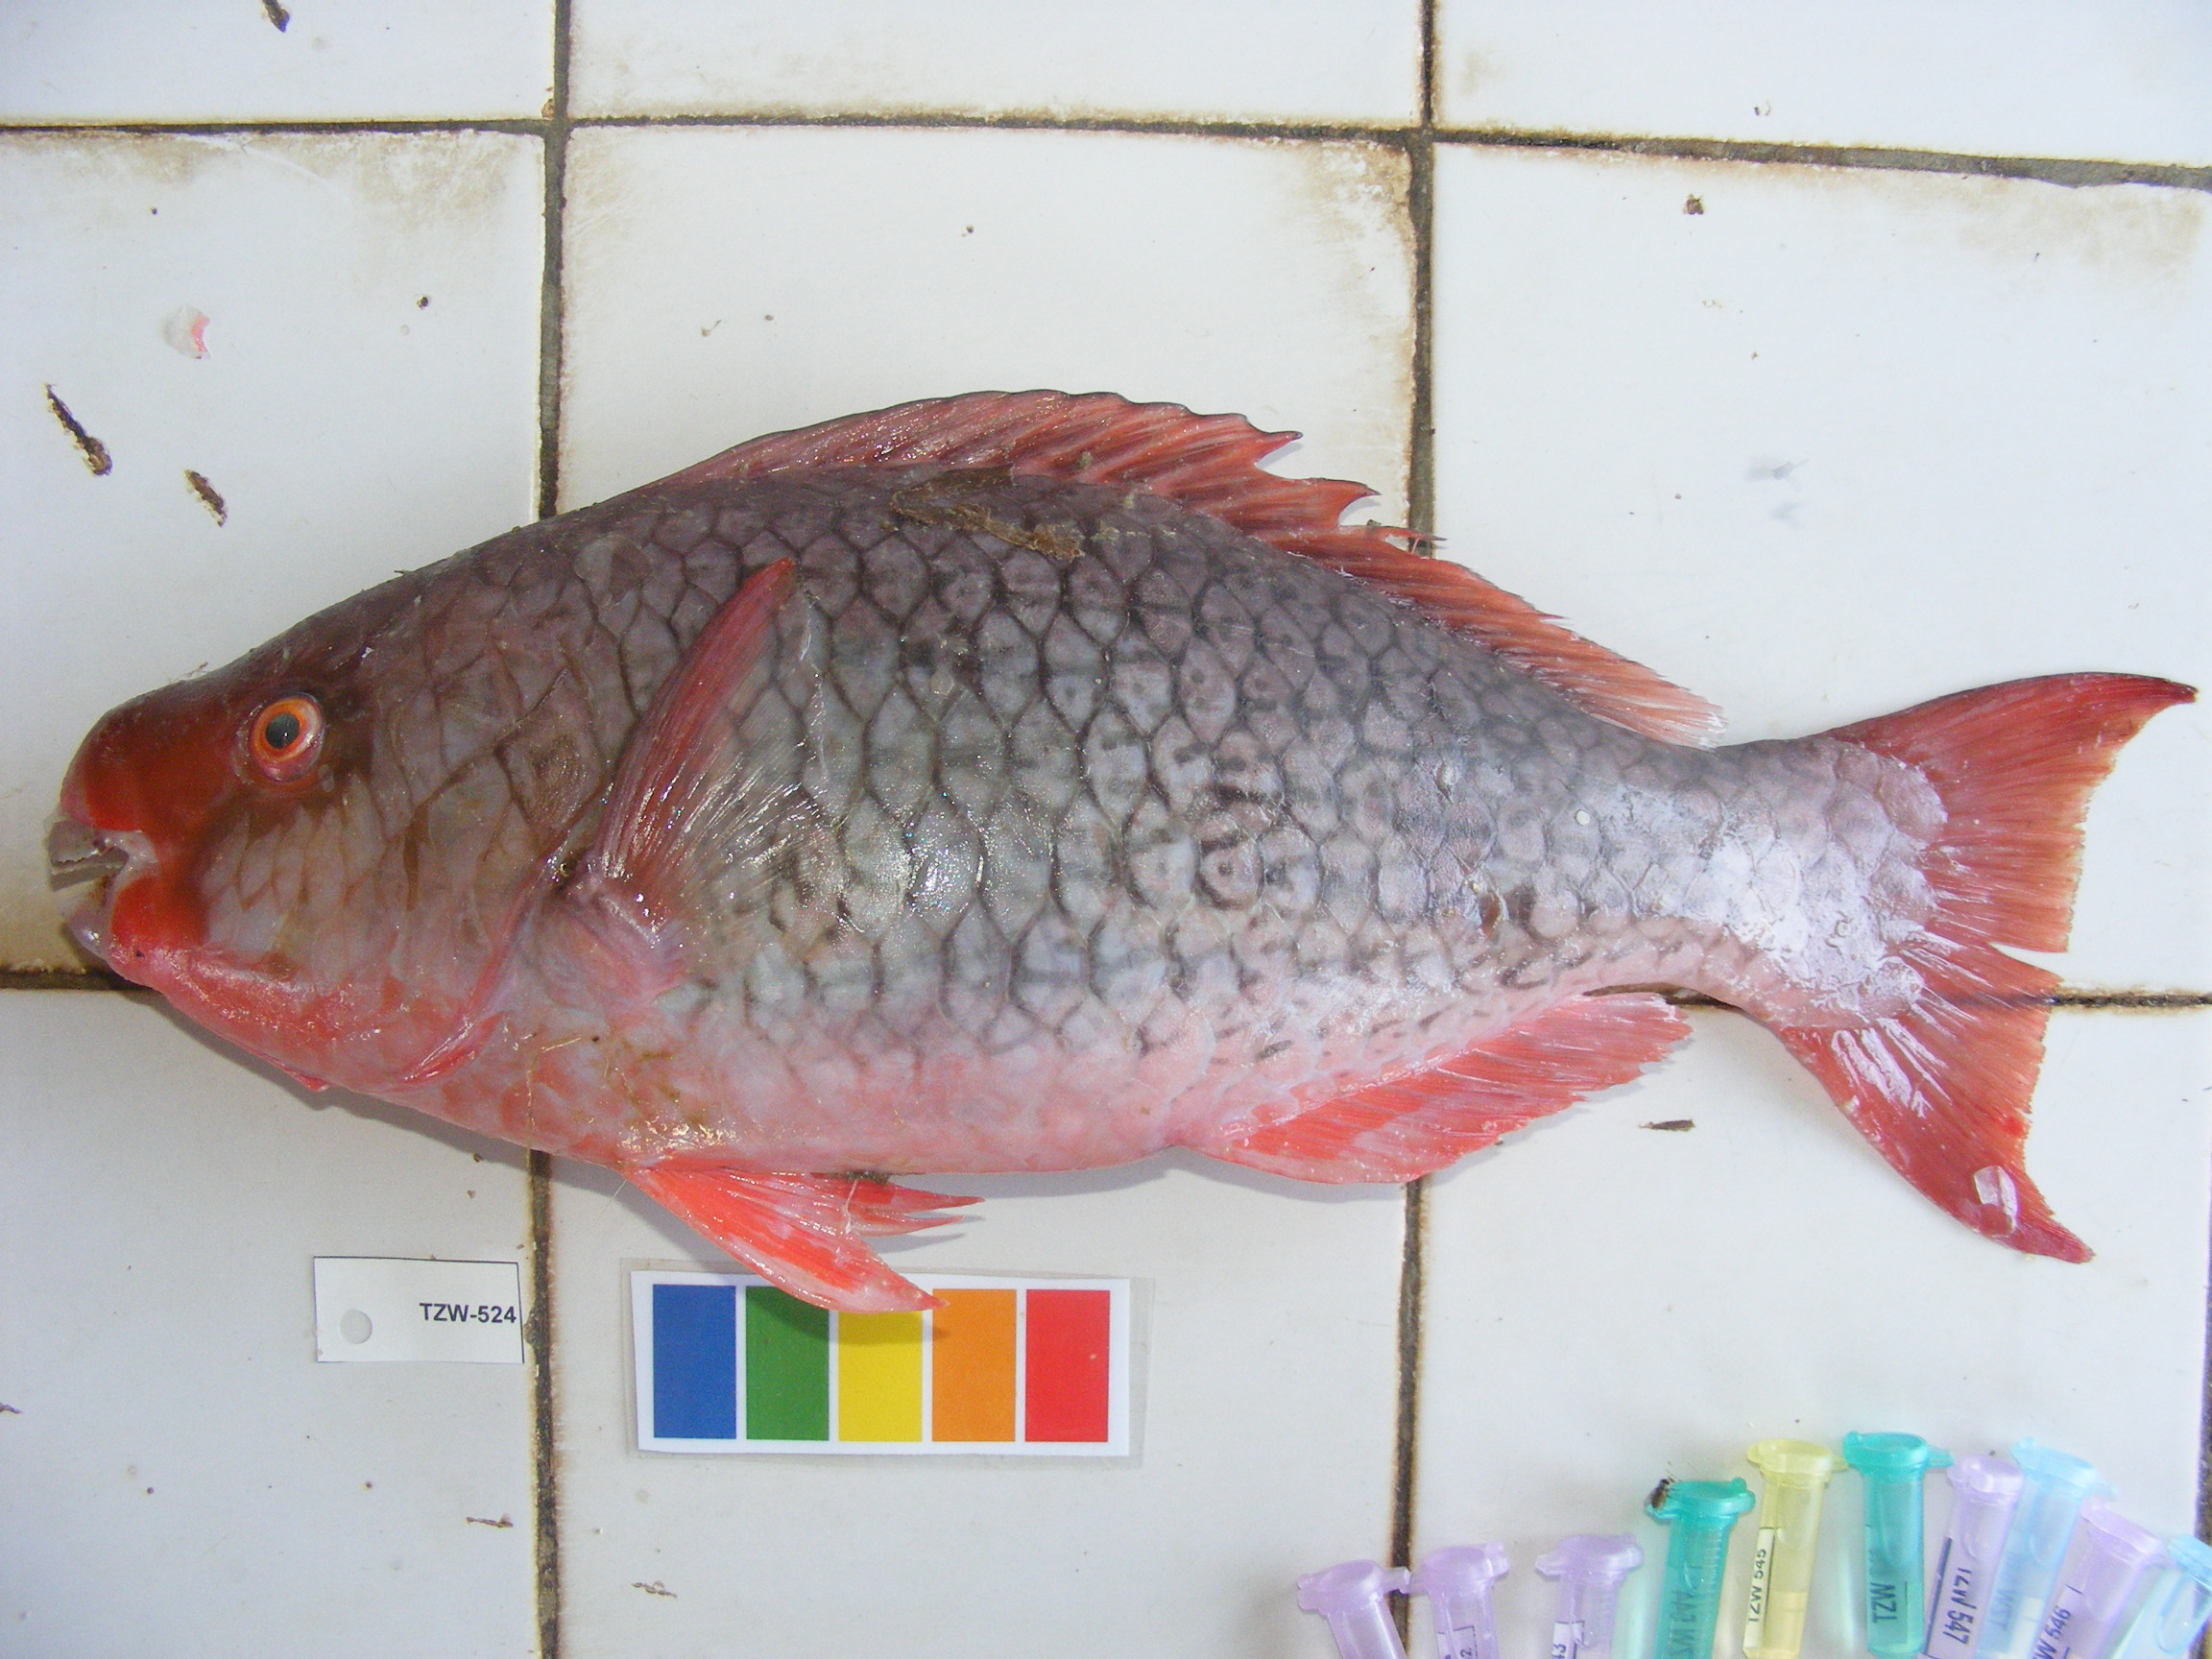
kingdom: Animalia
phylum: Chordata
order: Perciformes
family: Scaridae
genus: Scarus
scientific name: Scarus rubroviolaceus
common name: Ember parrotfish
